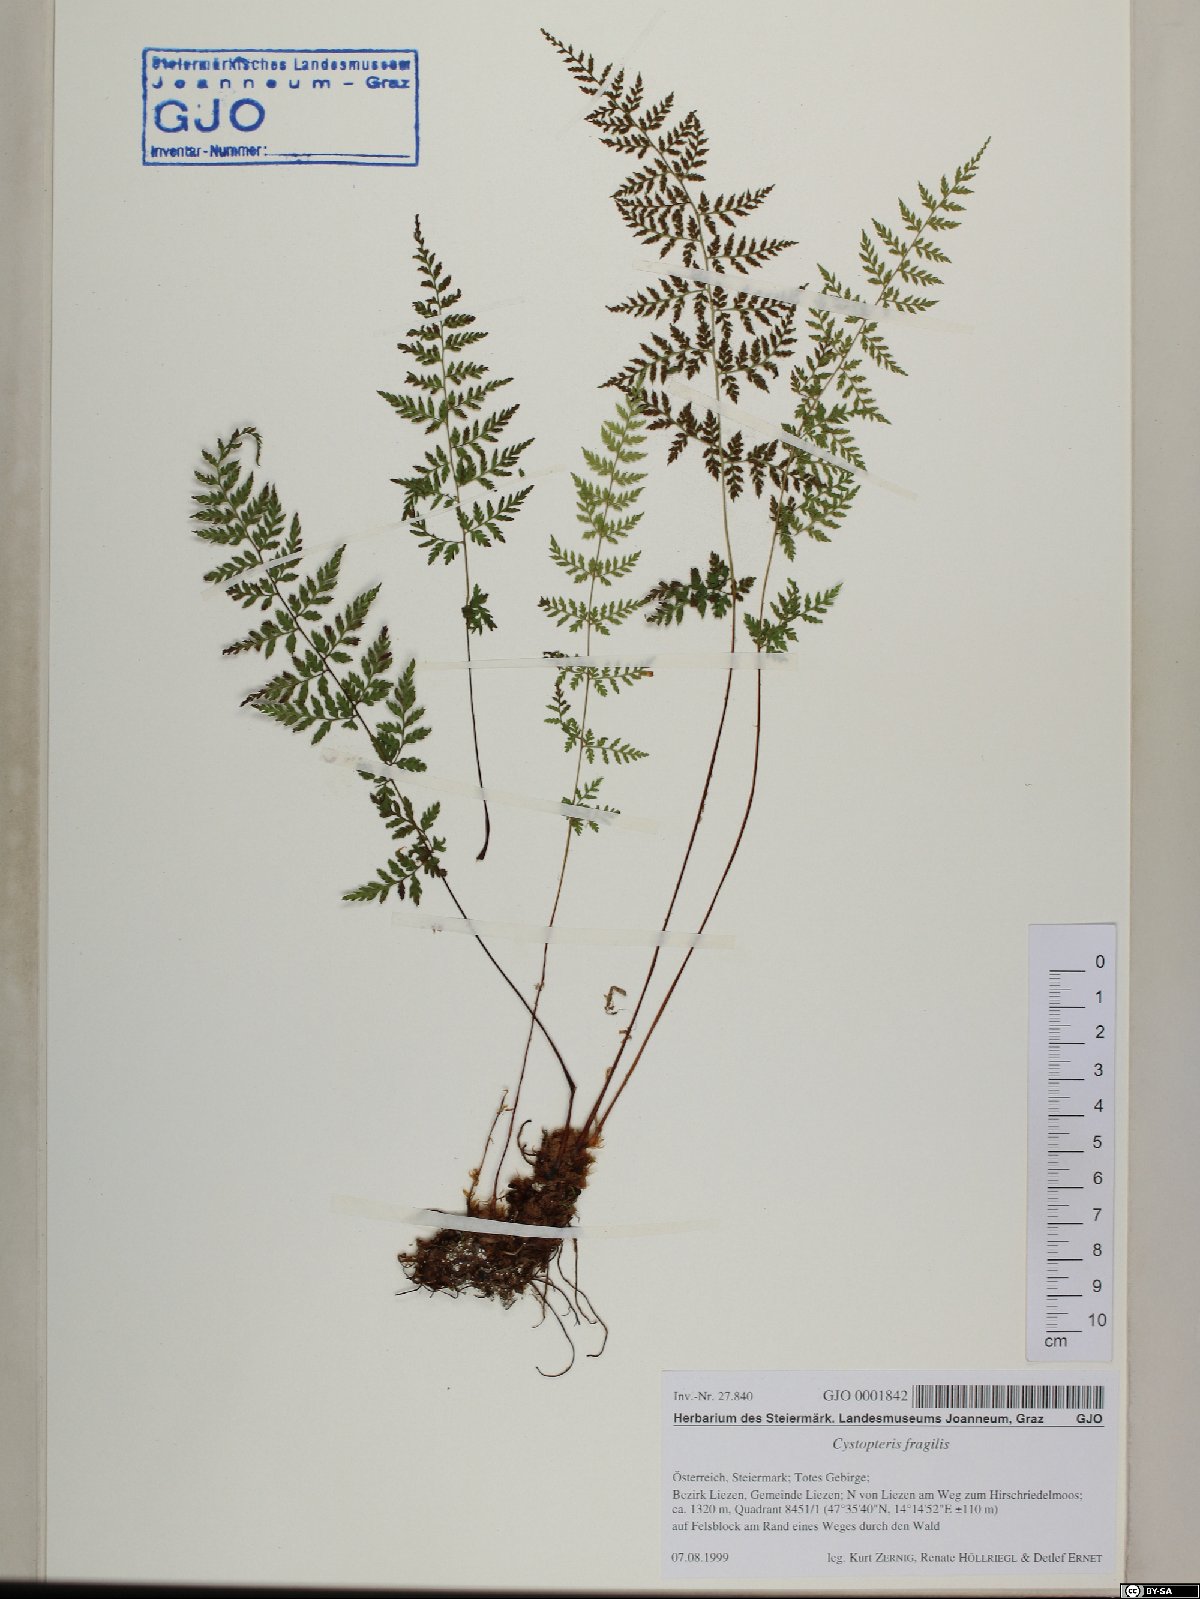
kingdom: Plantae
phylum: Tracheophyta
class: Polypodiopsida
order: Polypodiales
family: Cystopteridaceae
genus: Cystopteris
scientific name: Cystopteris fragilis
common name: Brittle bladder fern
